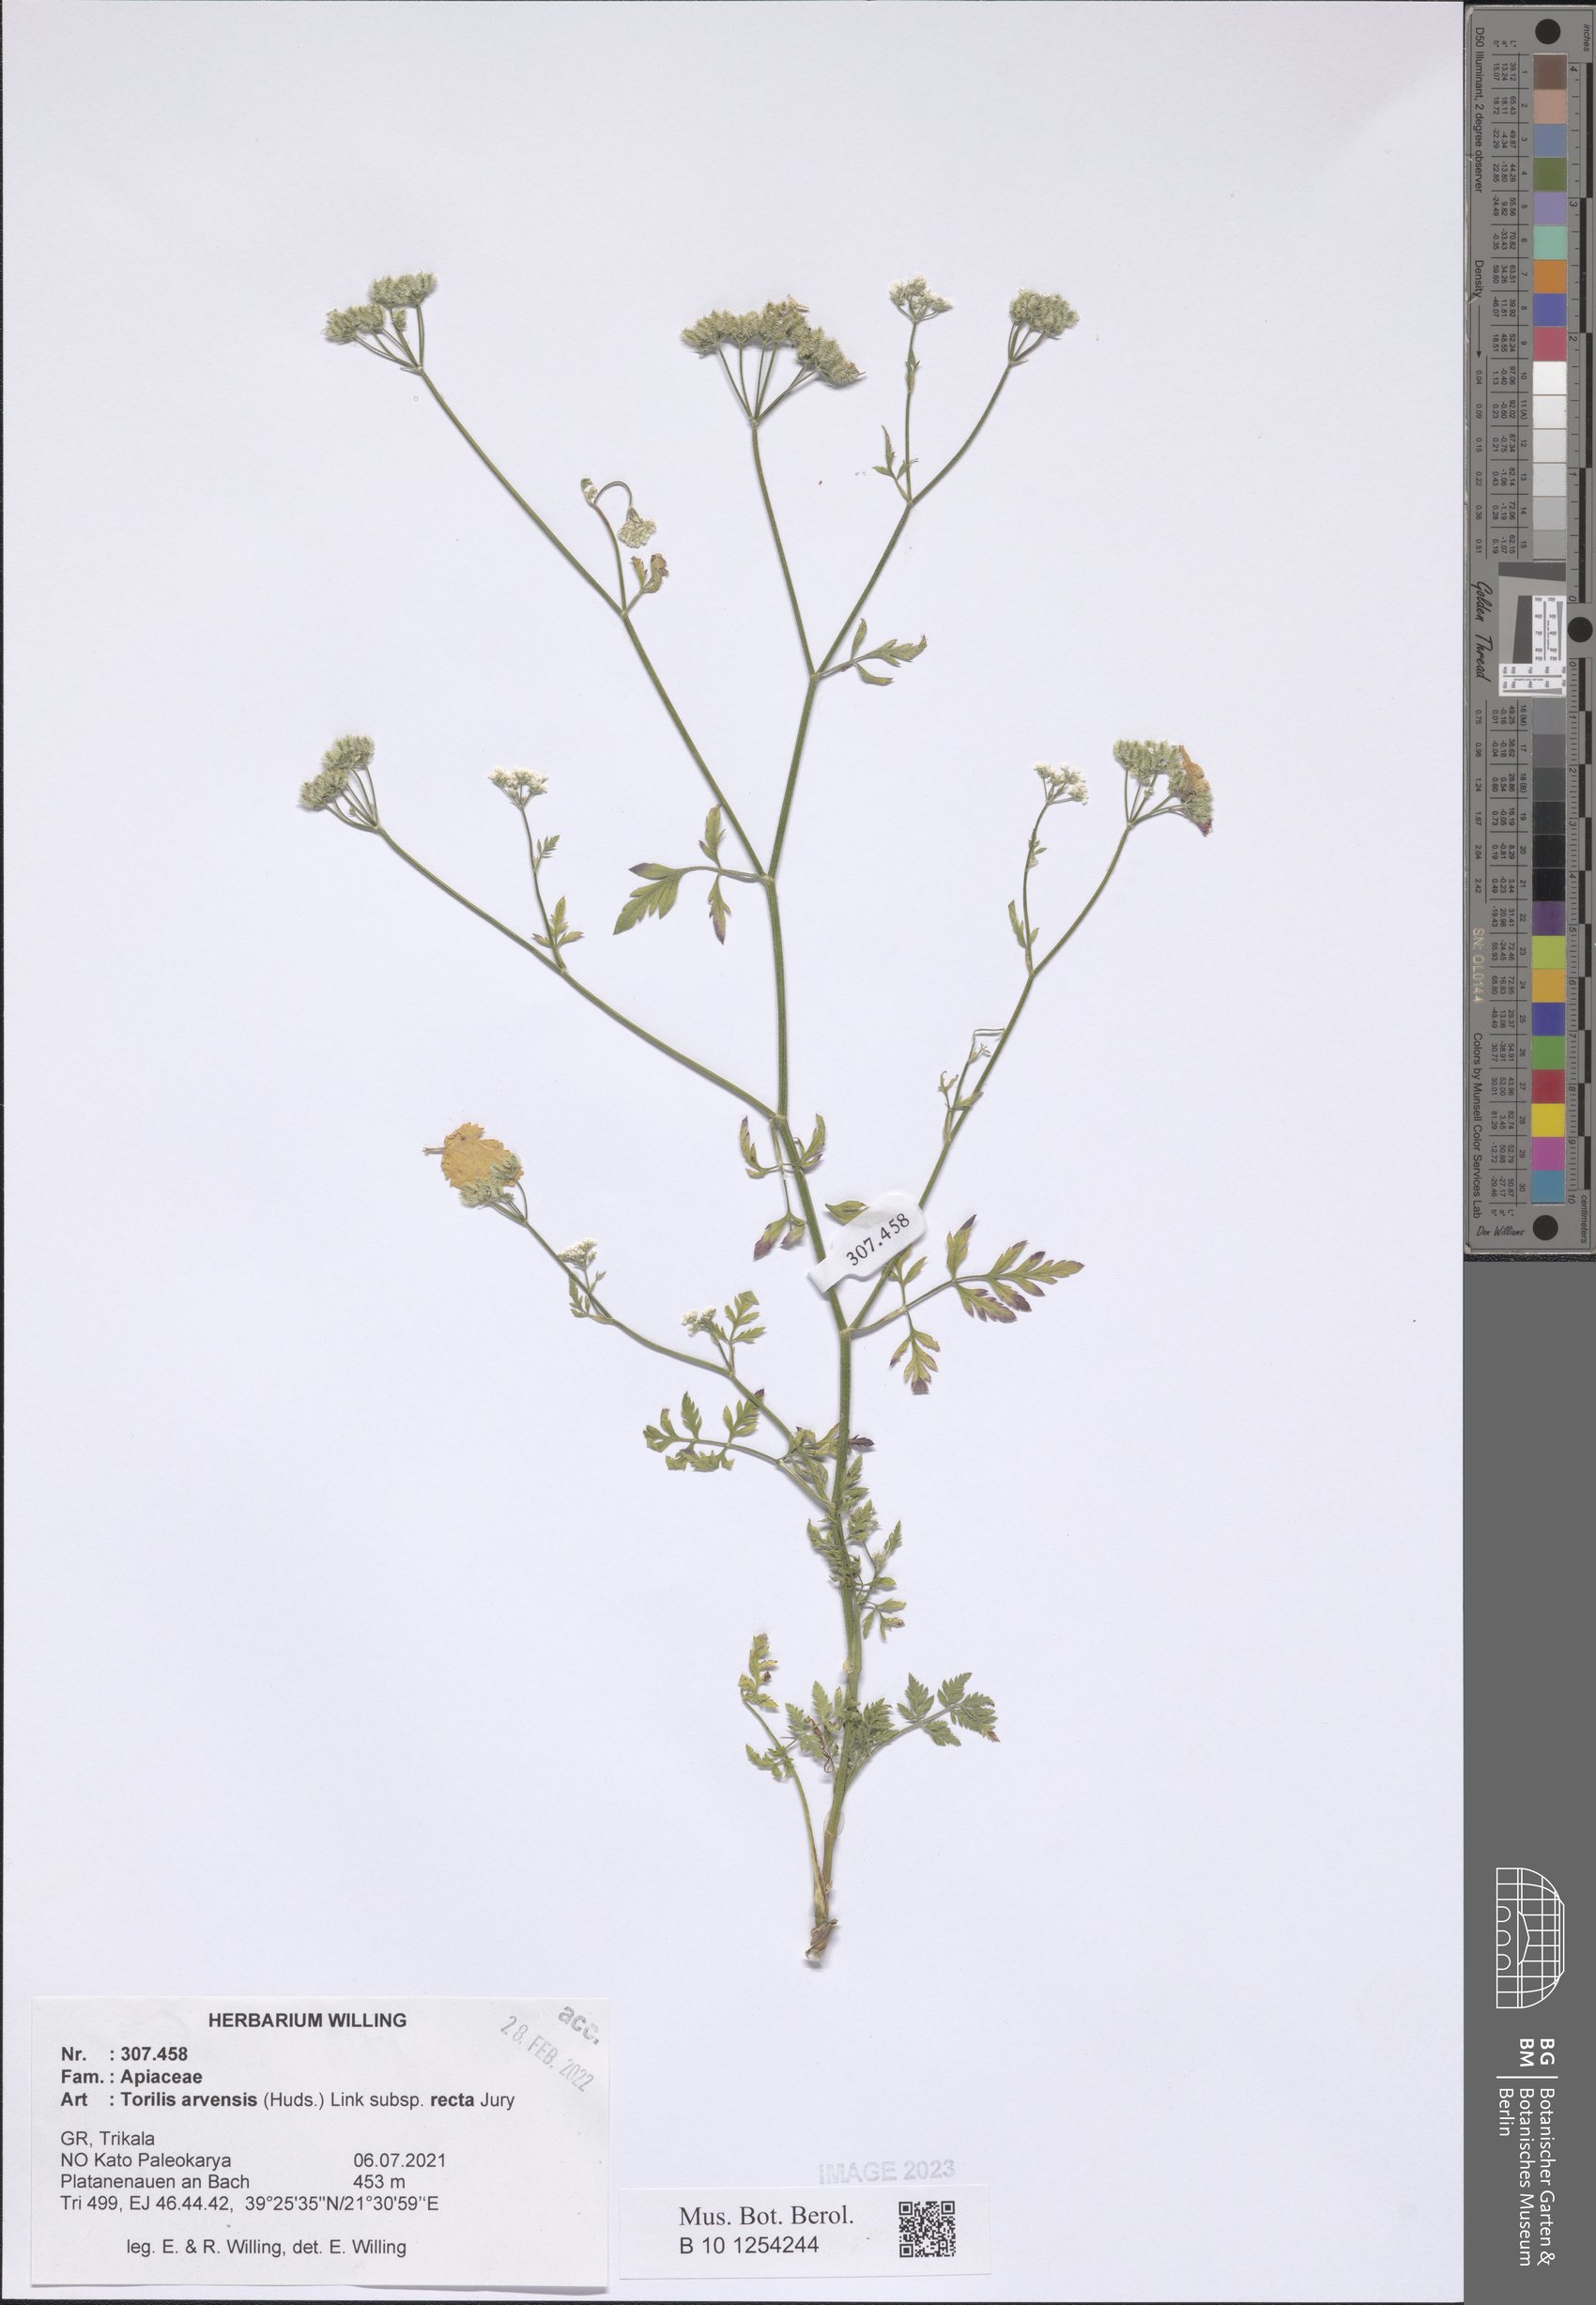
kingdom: Plantae
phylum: Tracheophyta
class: Magnoliopsida
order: Apiales
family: Apiaceae
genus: Torilis
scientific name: Torilis arvensis
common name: Spreading hedge-parsley
